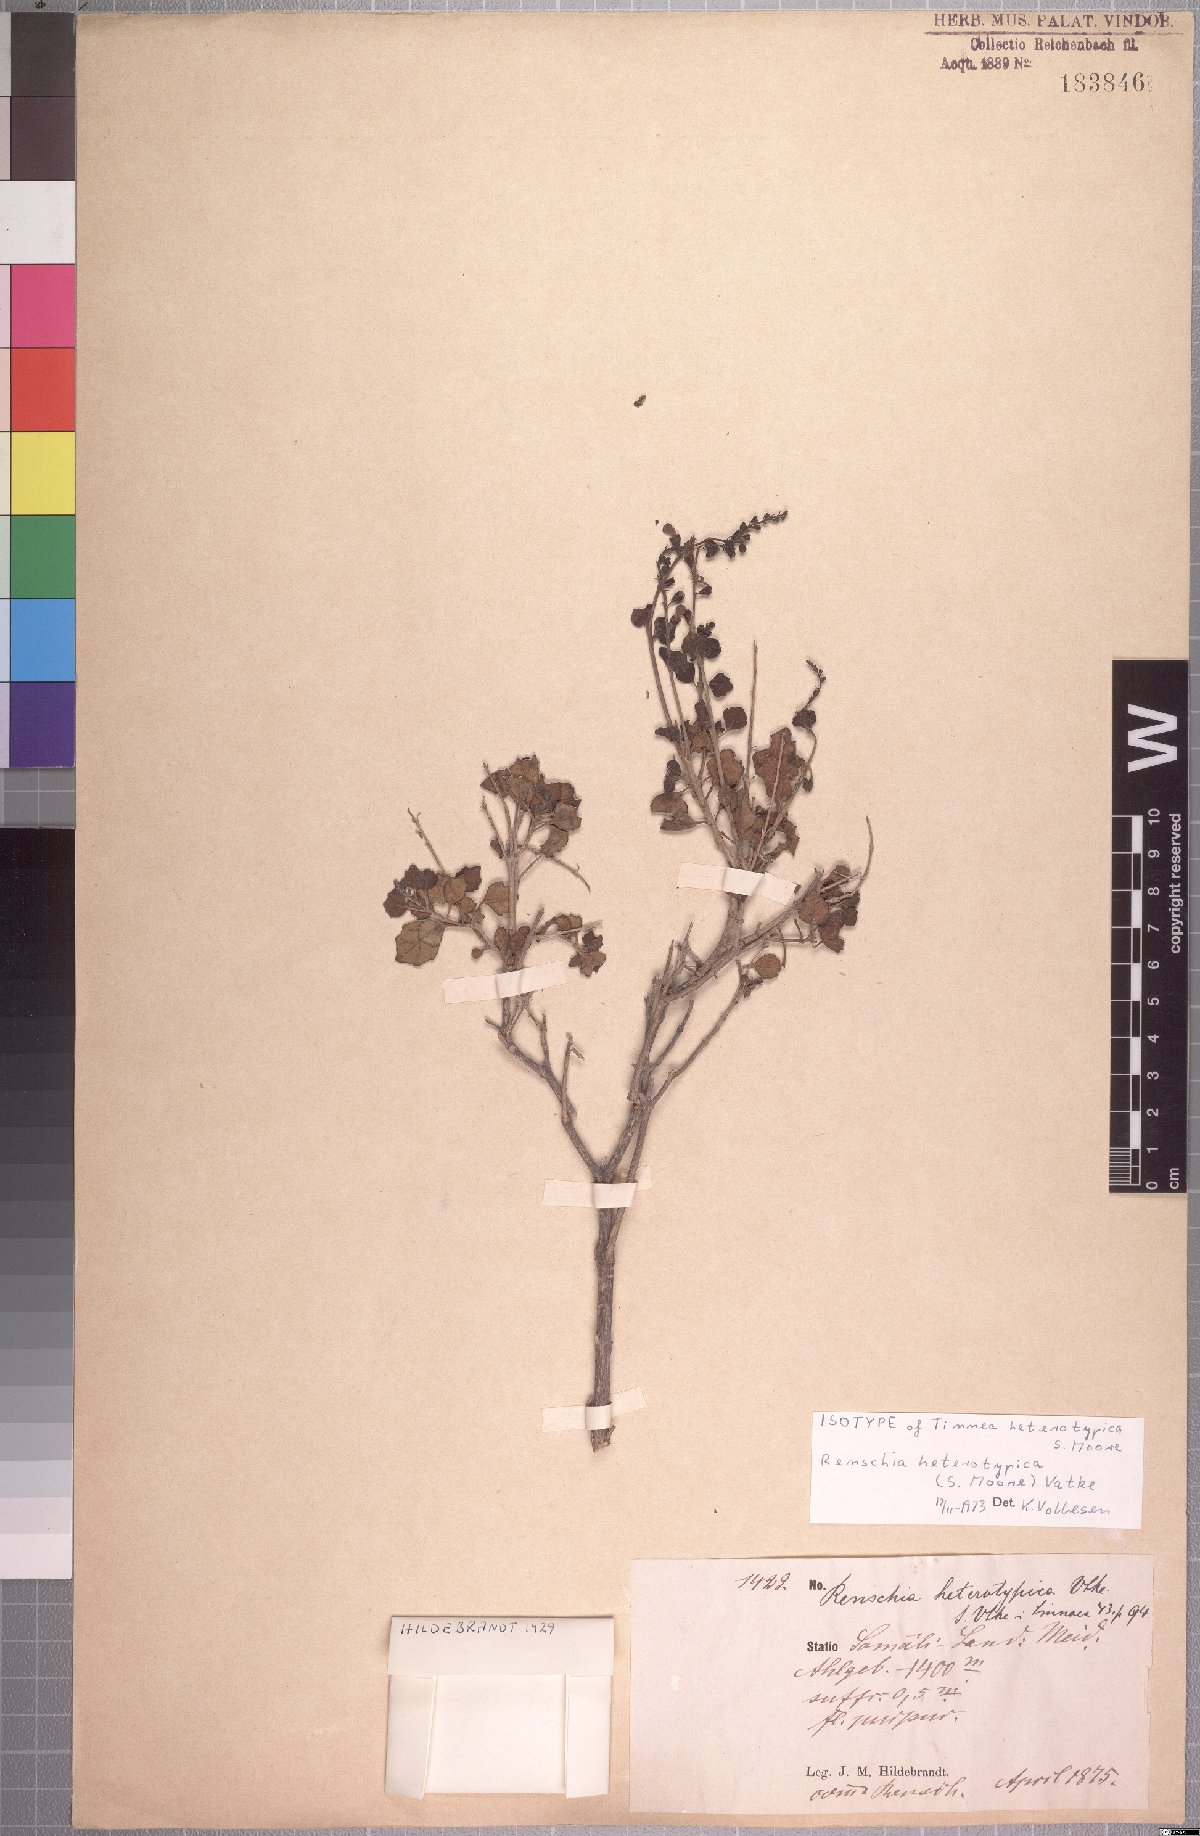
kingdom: Plantae
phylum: Tracheophyta
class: Magnoliopsida
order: Lamiales
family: Lamiaceae
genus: Renschia
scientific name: Renschia heterotypica
